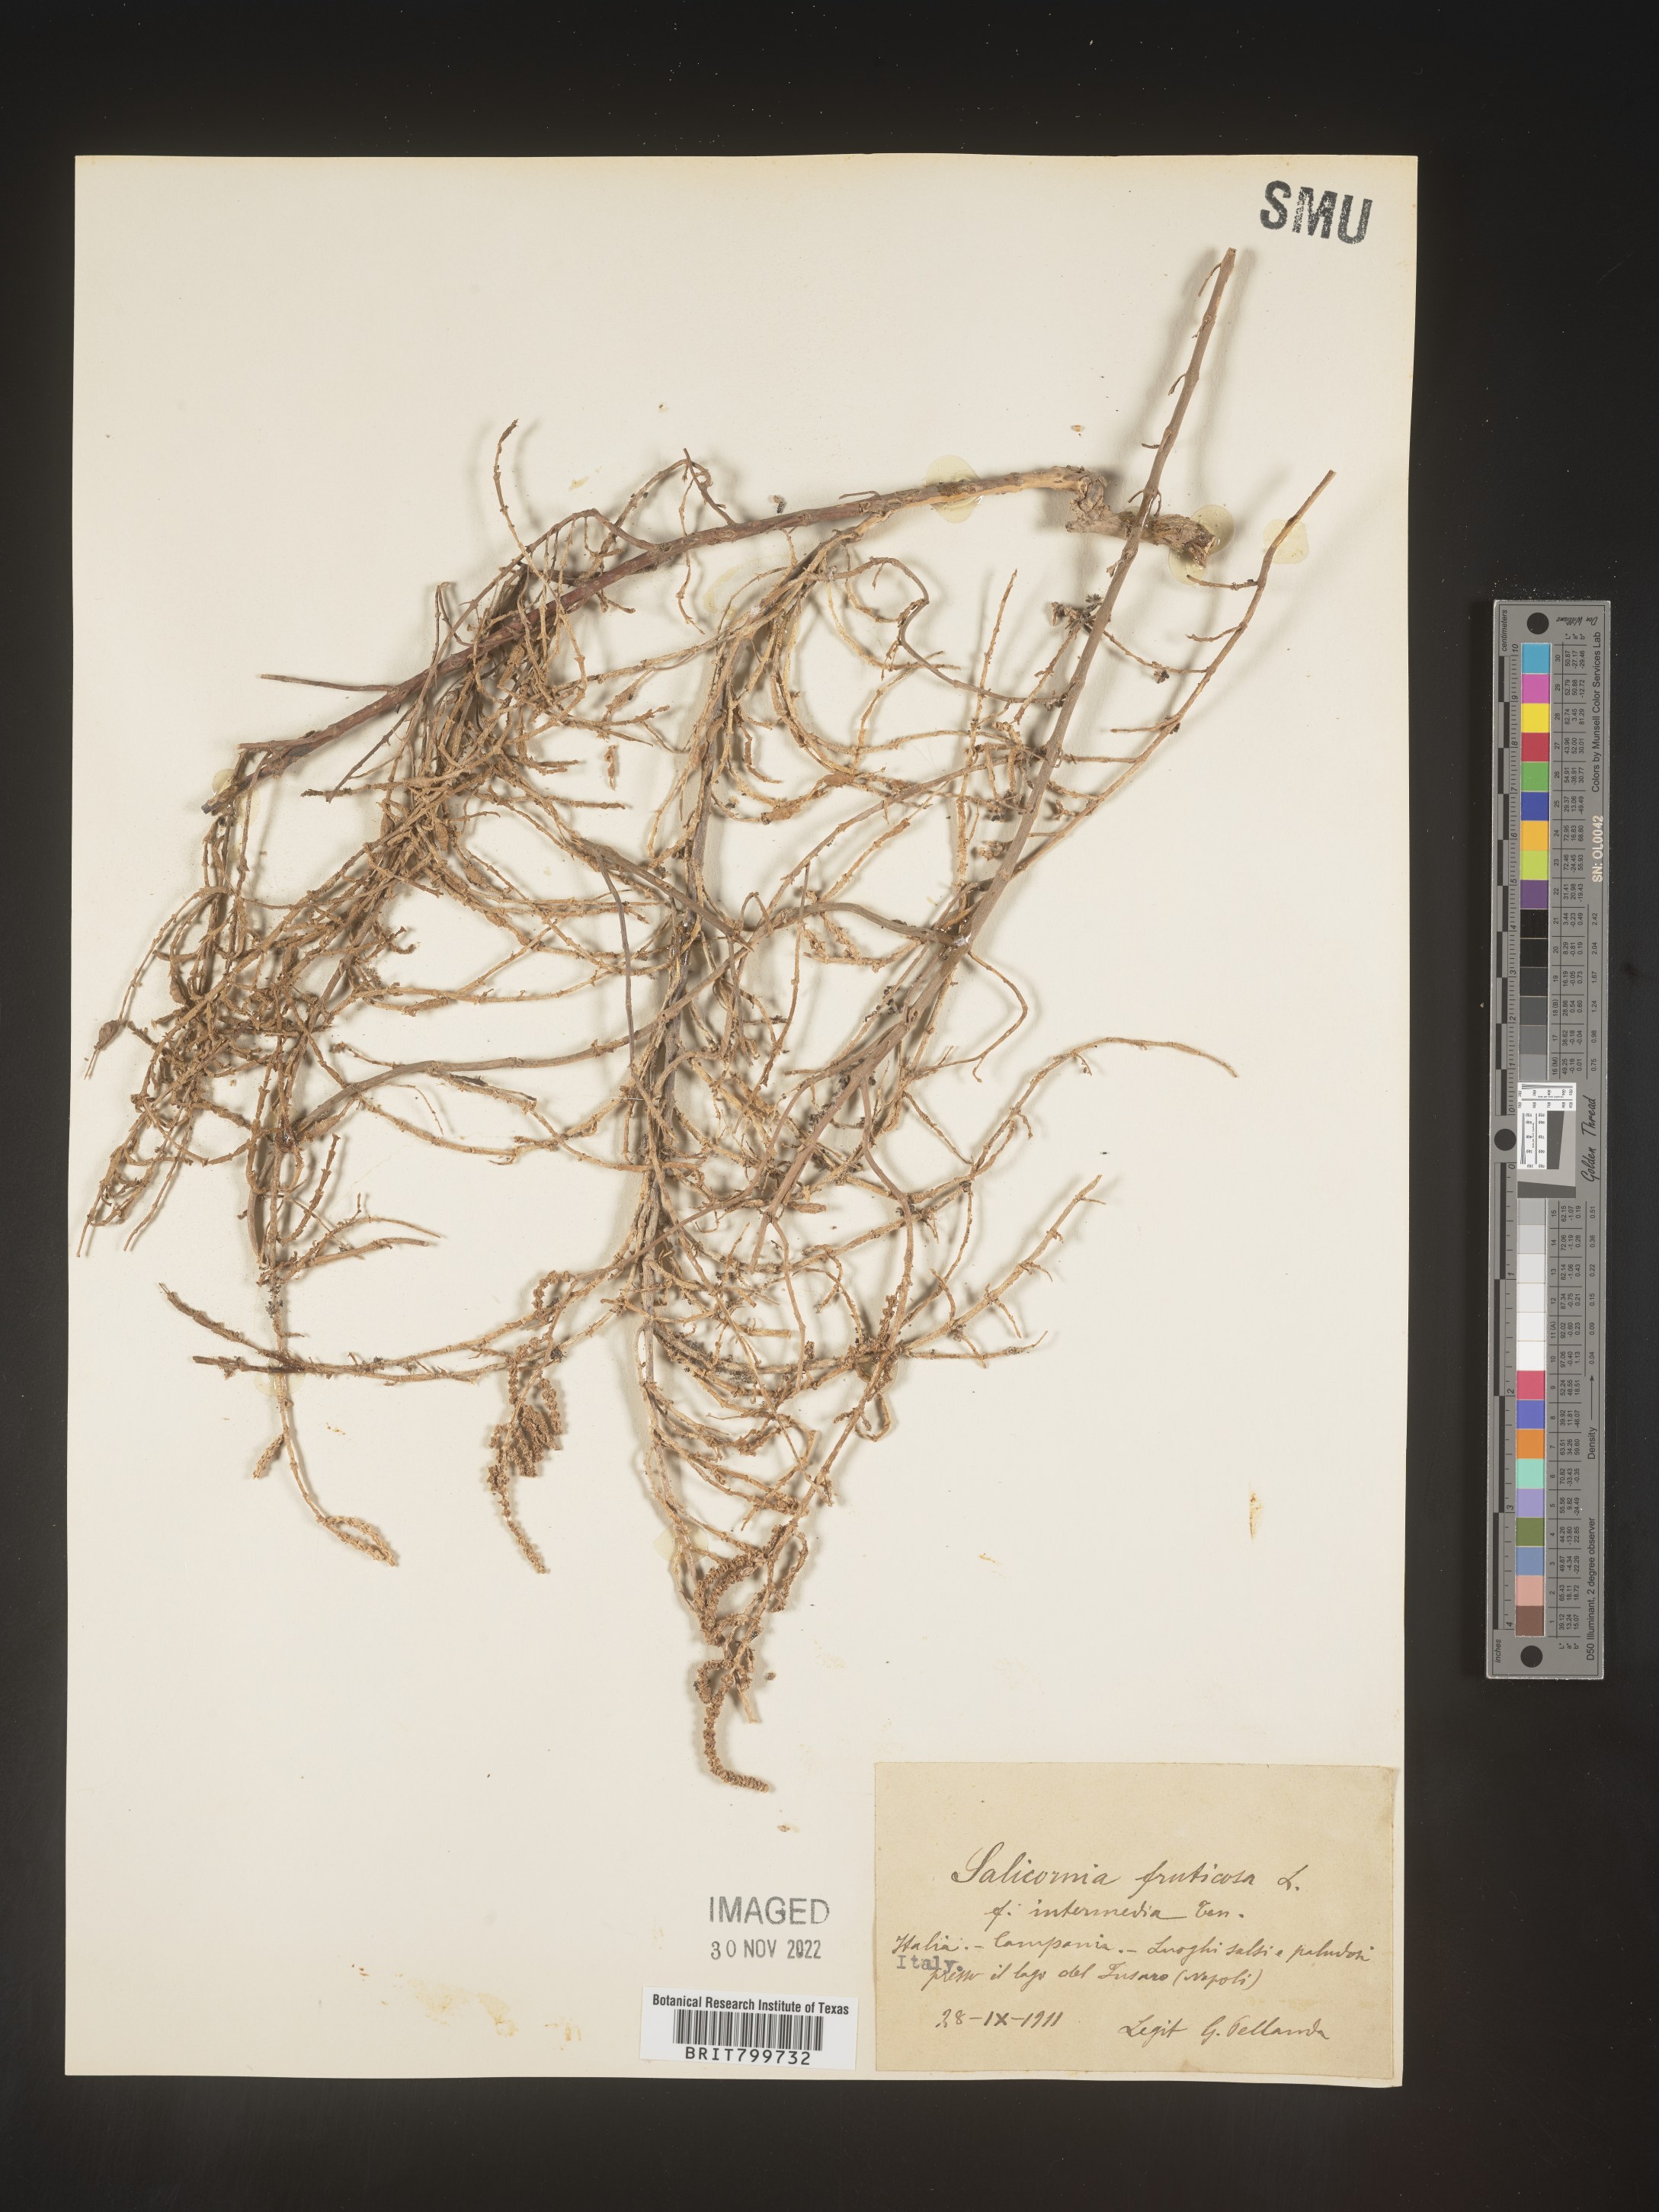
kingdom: Plantae
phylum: Tracheophyta
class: Magnoliopsida
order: Caryophyllales
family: Amaranthaceae
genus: Salicornia
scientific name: Salicornia
